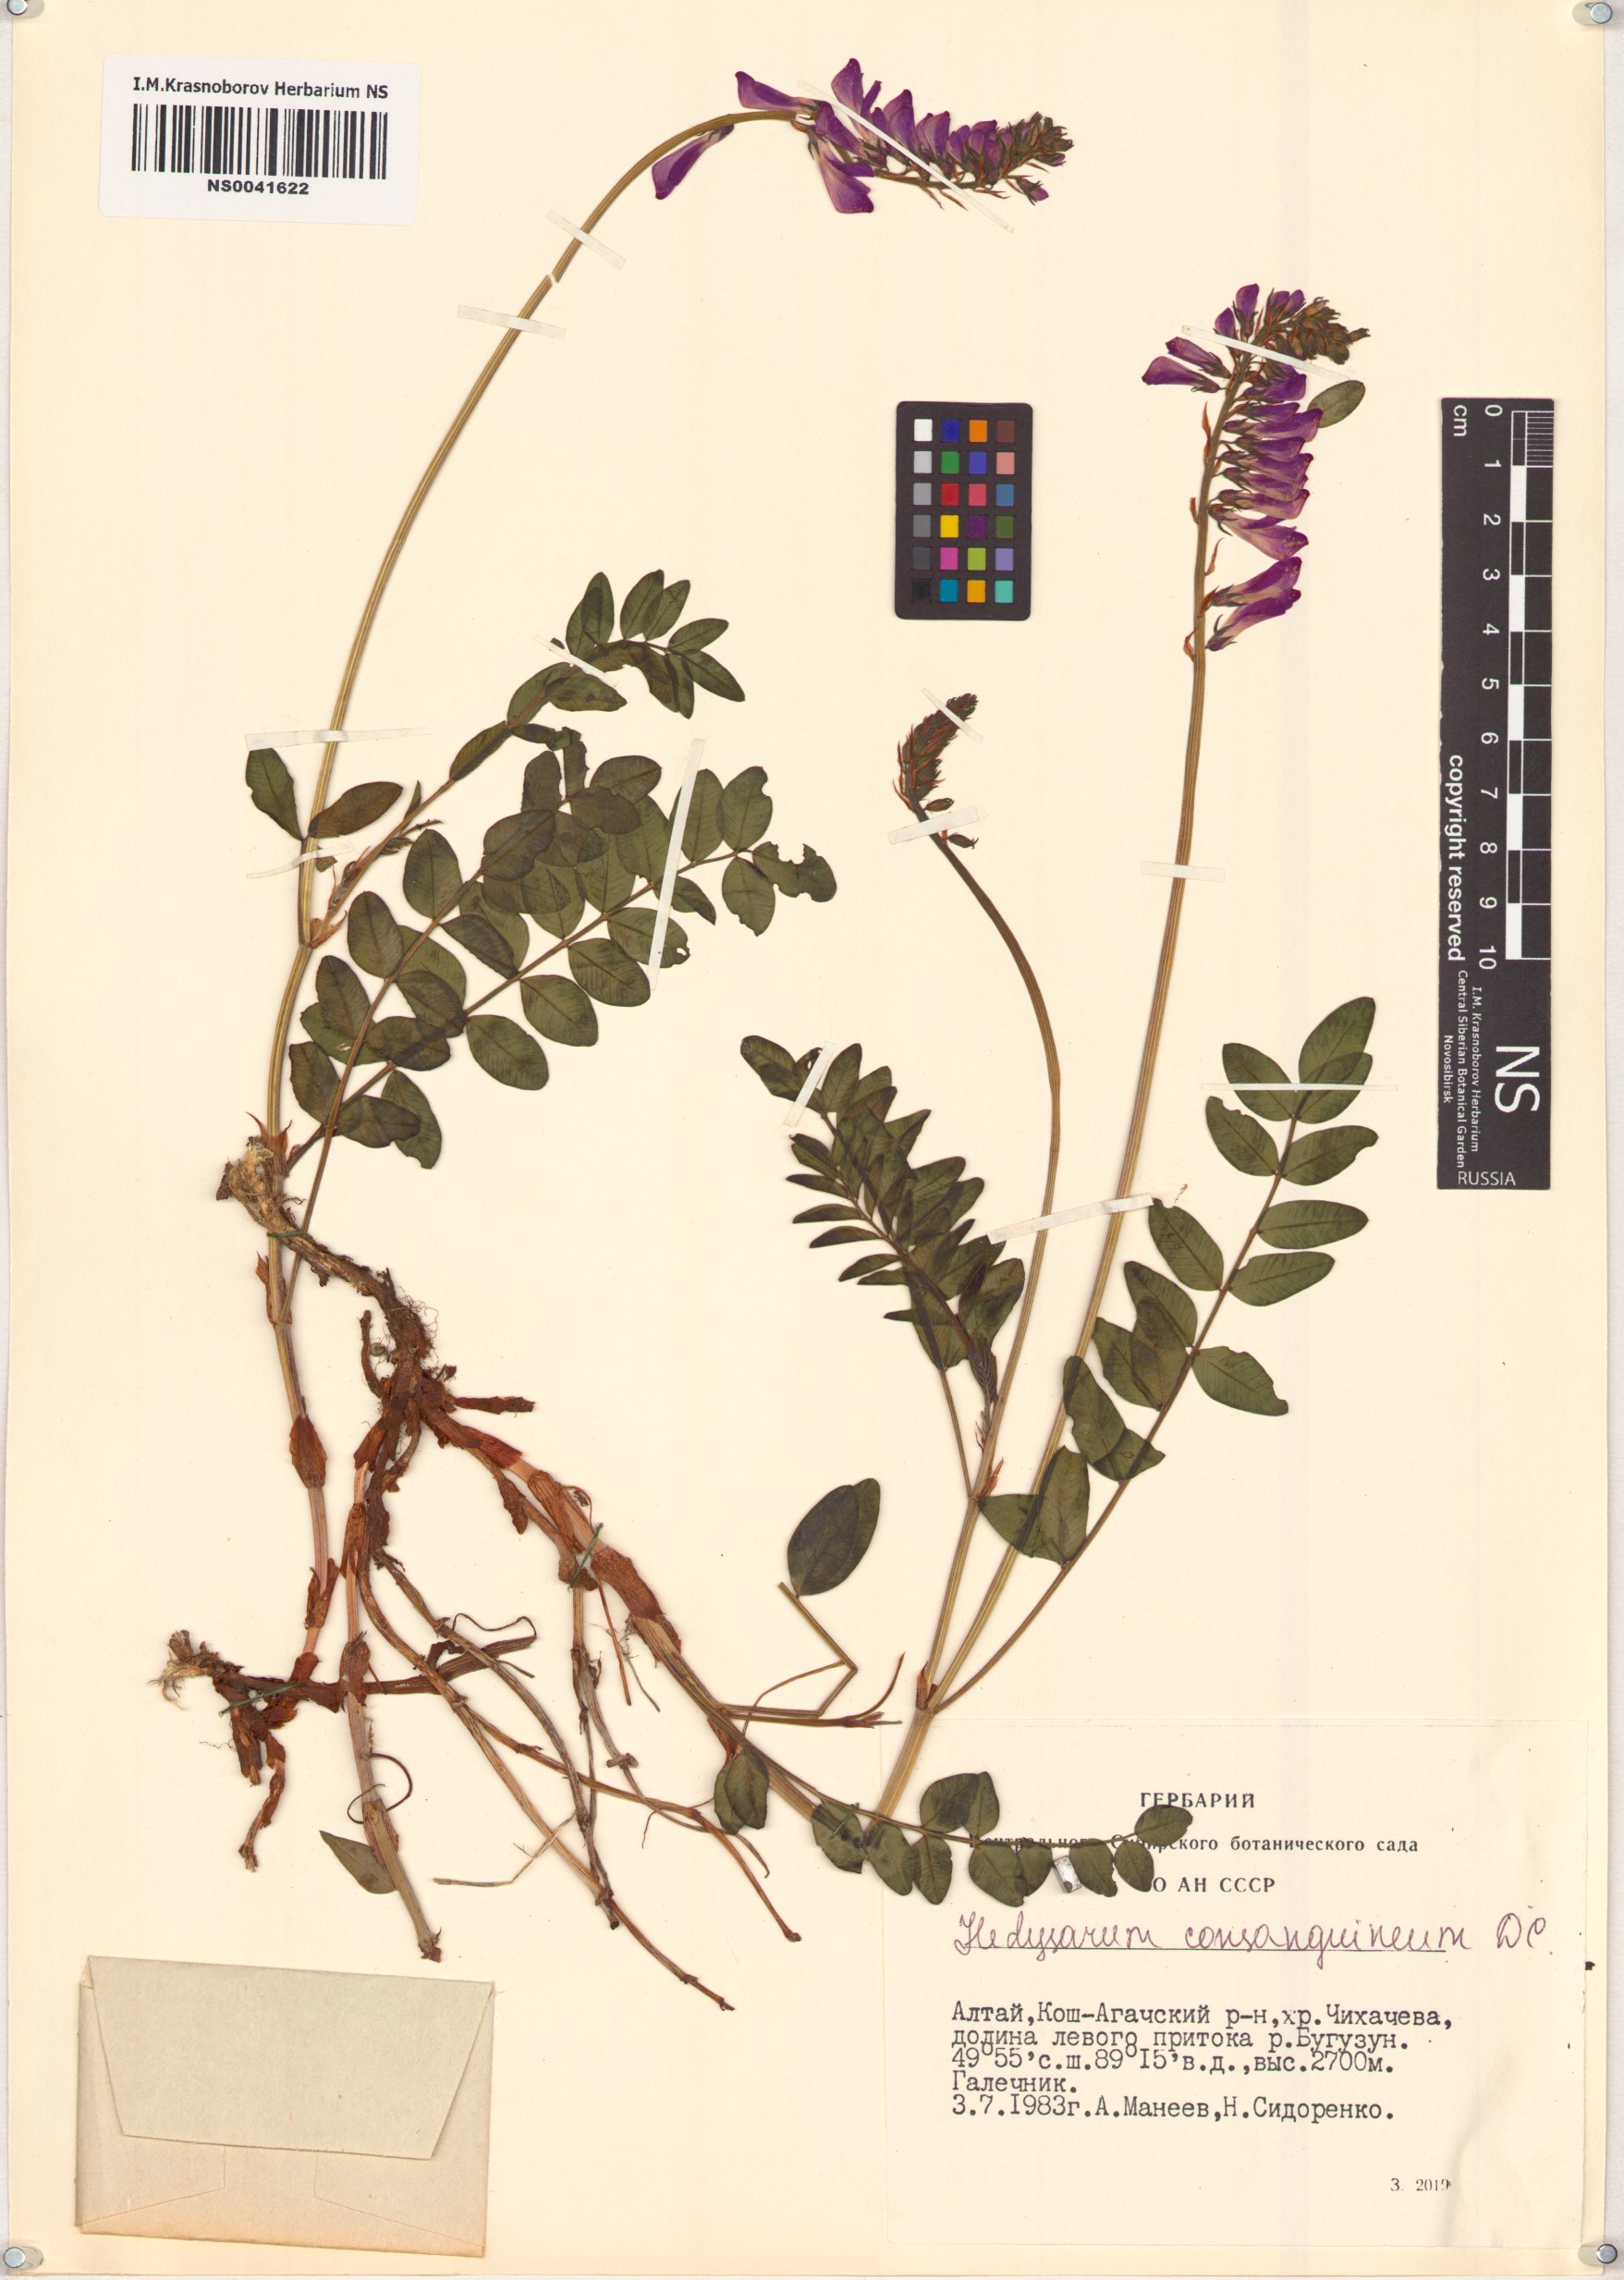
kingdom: Plantae
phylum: Tracheophyta
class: Magnoliopsida
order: Fabales
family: Fabaceae
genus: Hedysarum
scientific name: Hedysarum consanguineum
